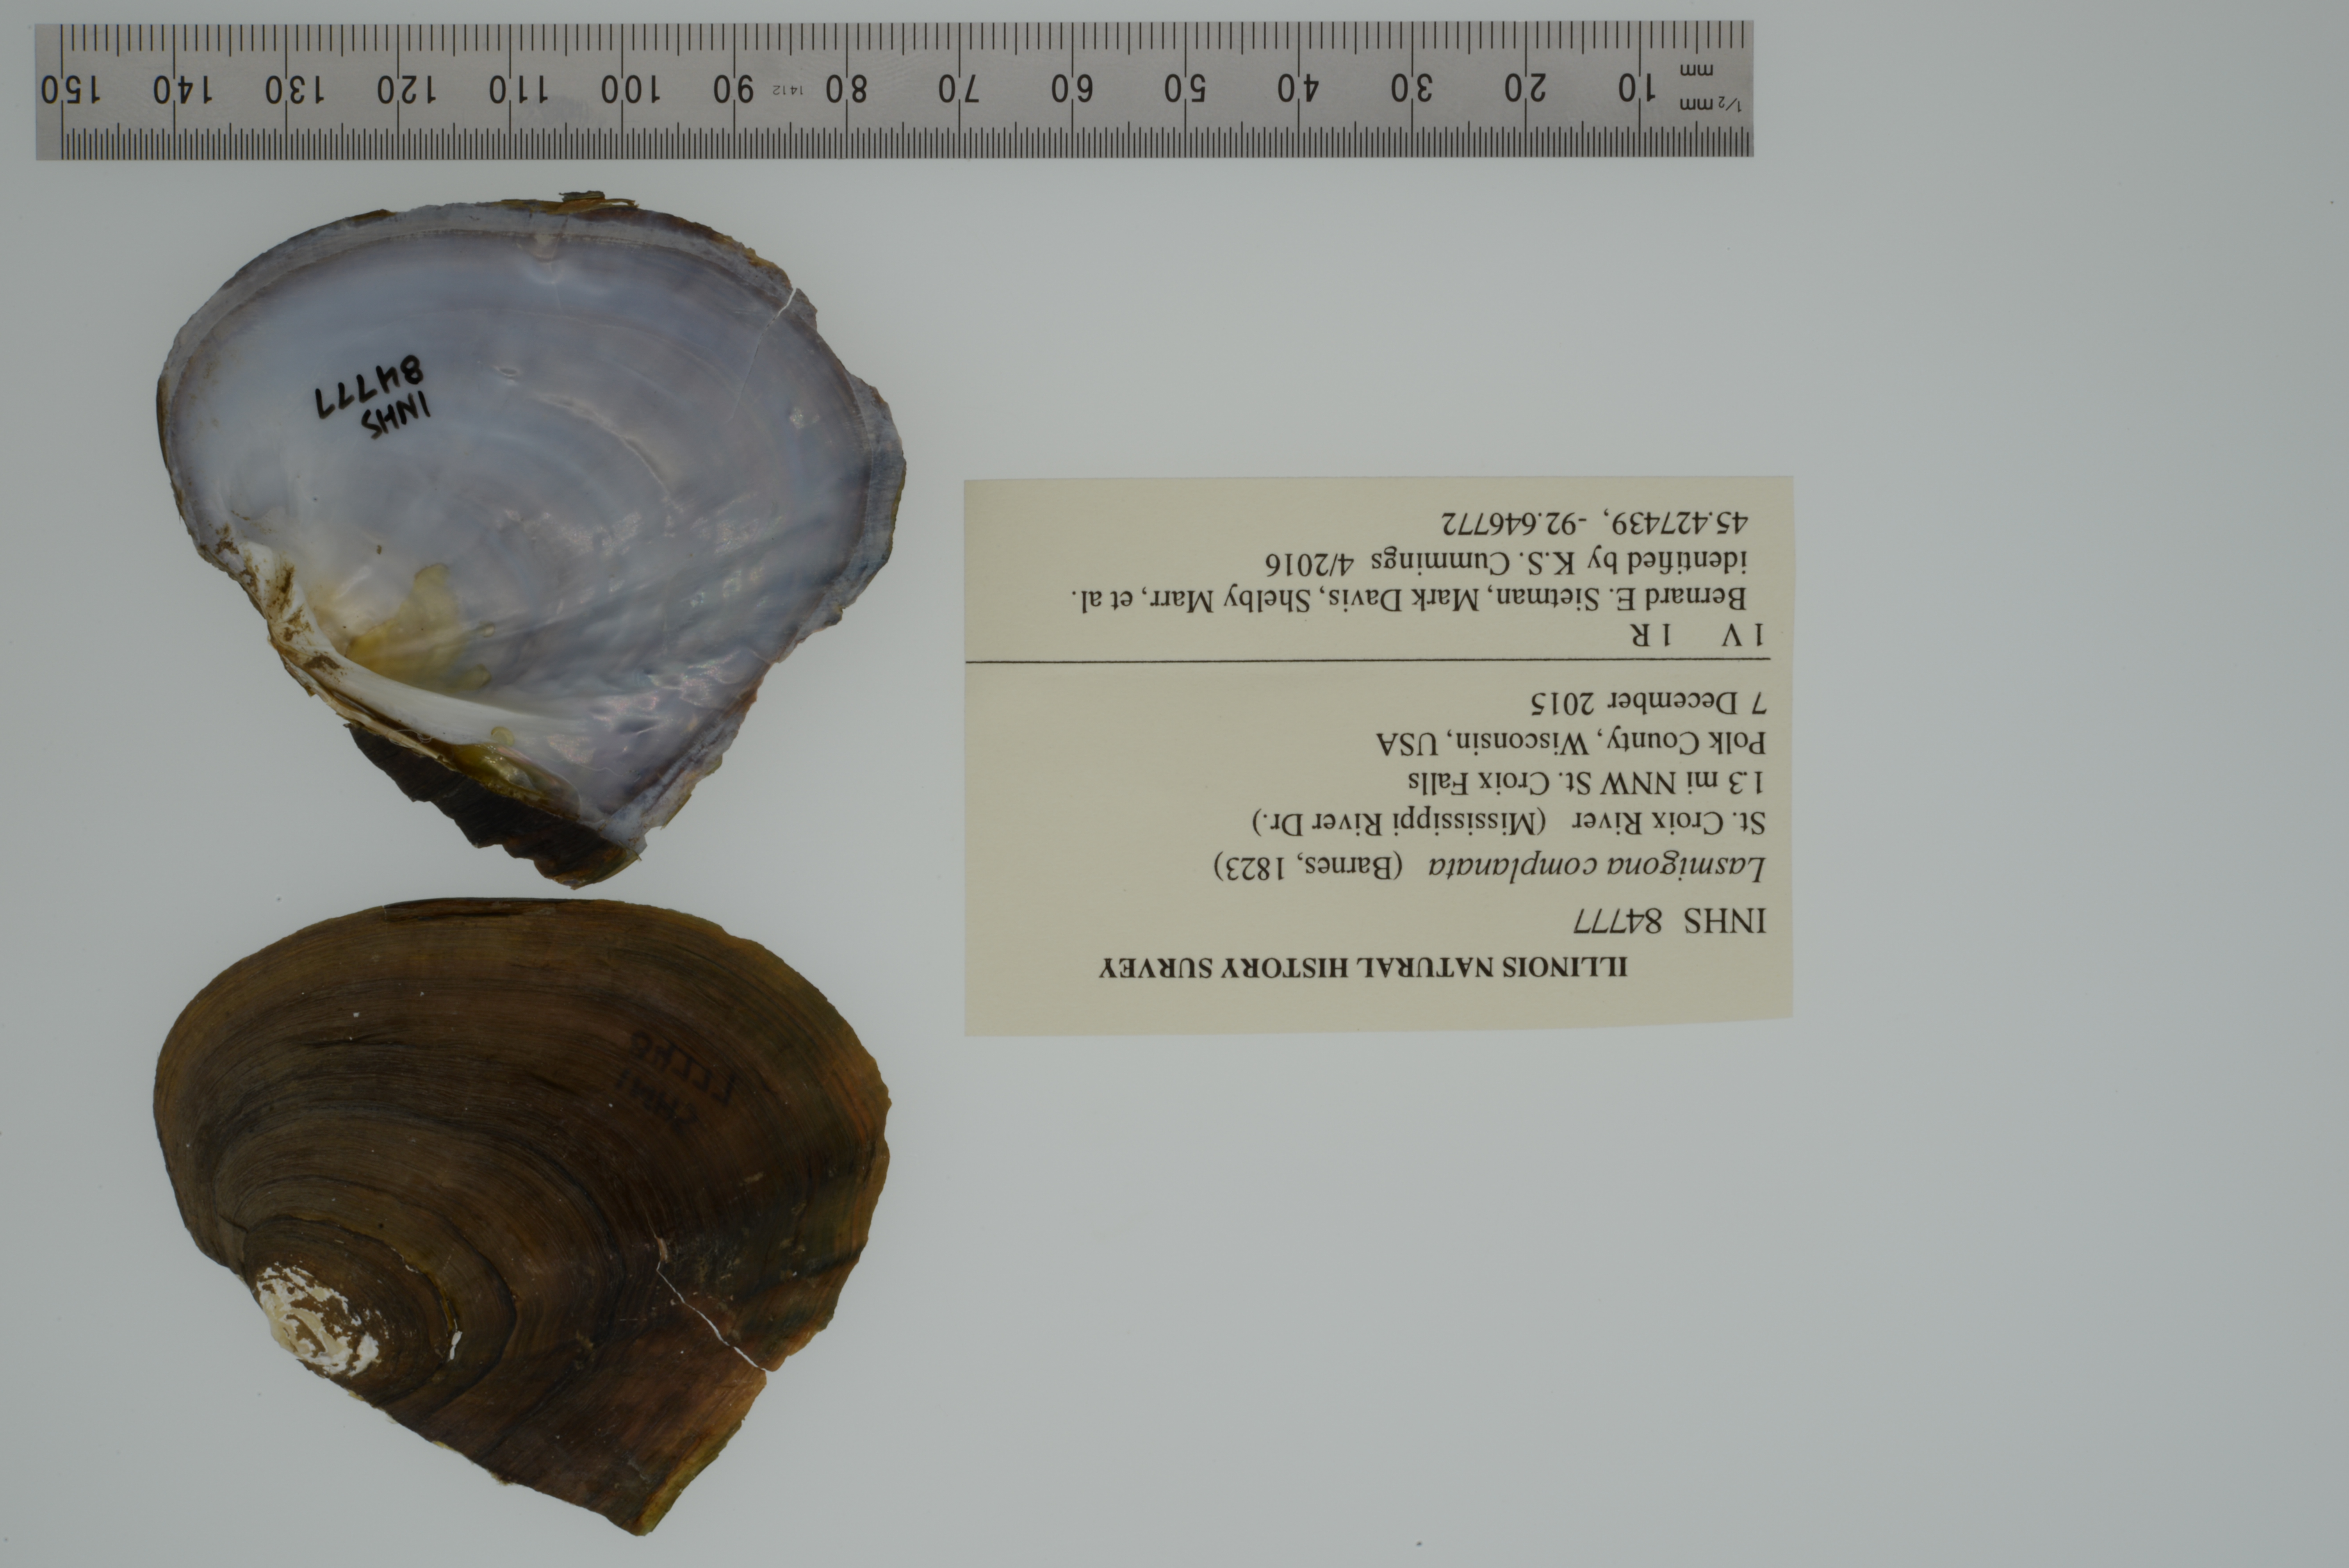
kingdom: Animalia
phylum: Mollusca
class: Bivalvia
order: Unionida
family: Unionidae
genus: Lasmigona
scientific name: Lasmigona complanata
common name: White heelsplitter
